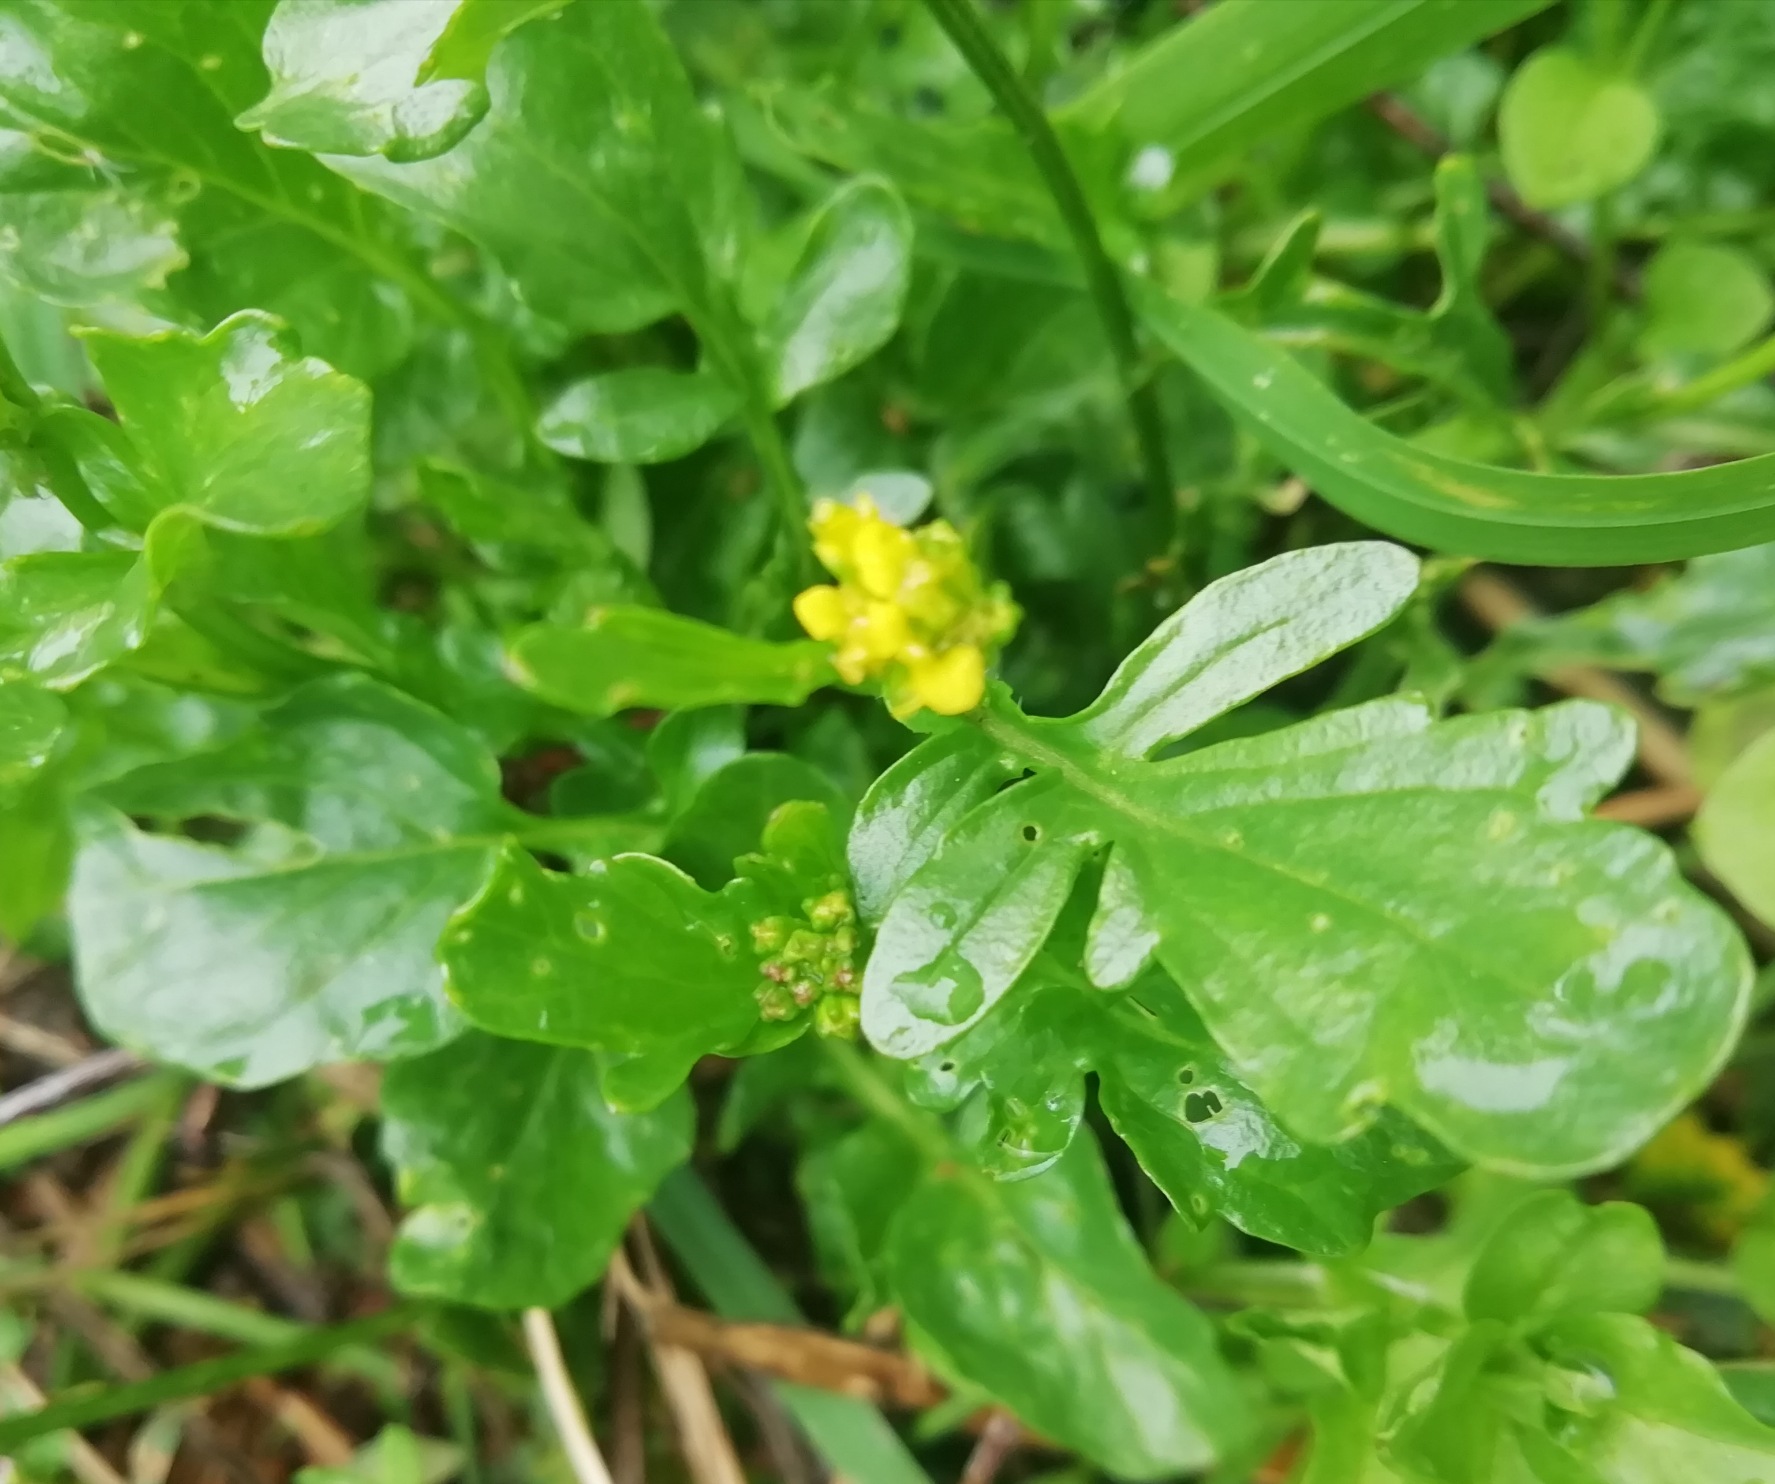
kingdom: Plantae
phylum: Tracheophyta
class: Magnoliopsida
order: Brassicales
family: Brassicaceae
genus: Barbarea
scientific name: Barbarea intermedia
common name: Randhåret vinterkarse
